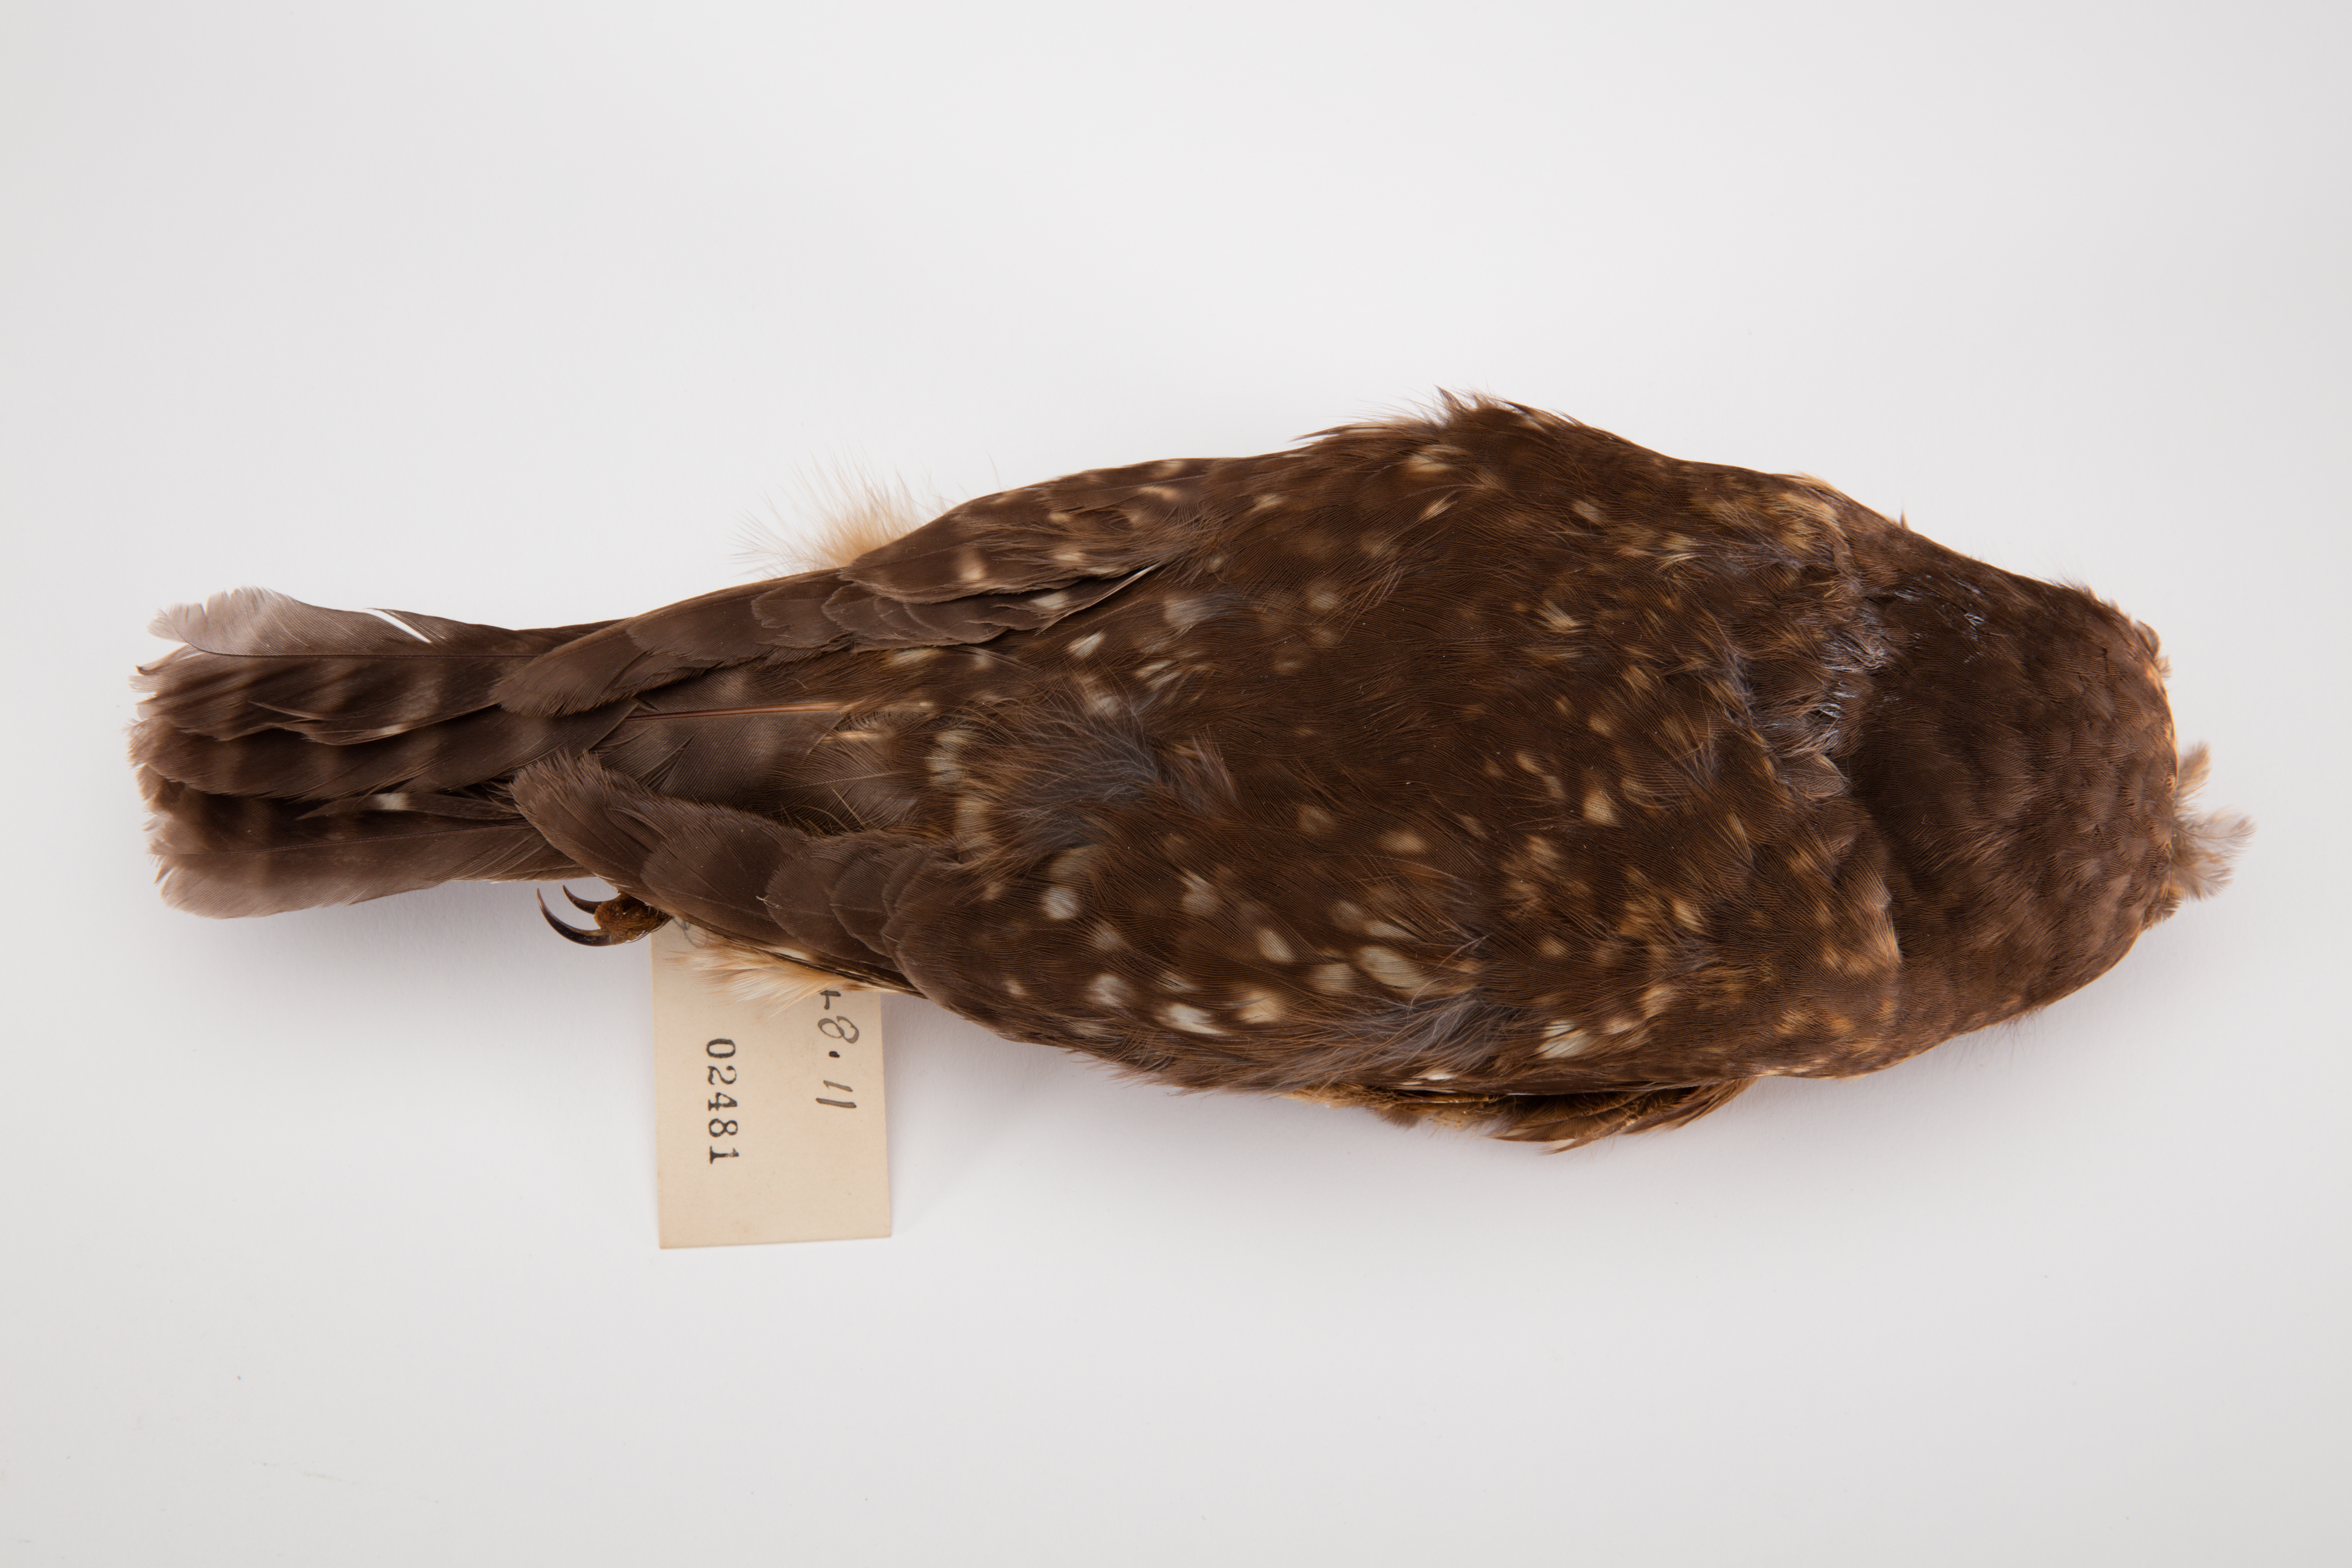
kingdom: Animalia
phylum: Chordata
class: Aves
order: Strigiformes
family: Strigidae
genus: Ninox
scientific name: Ninox novaeseelandiae
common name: Morepork
